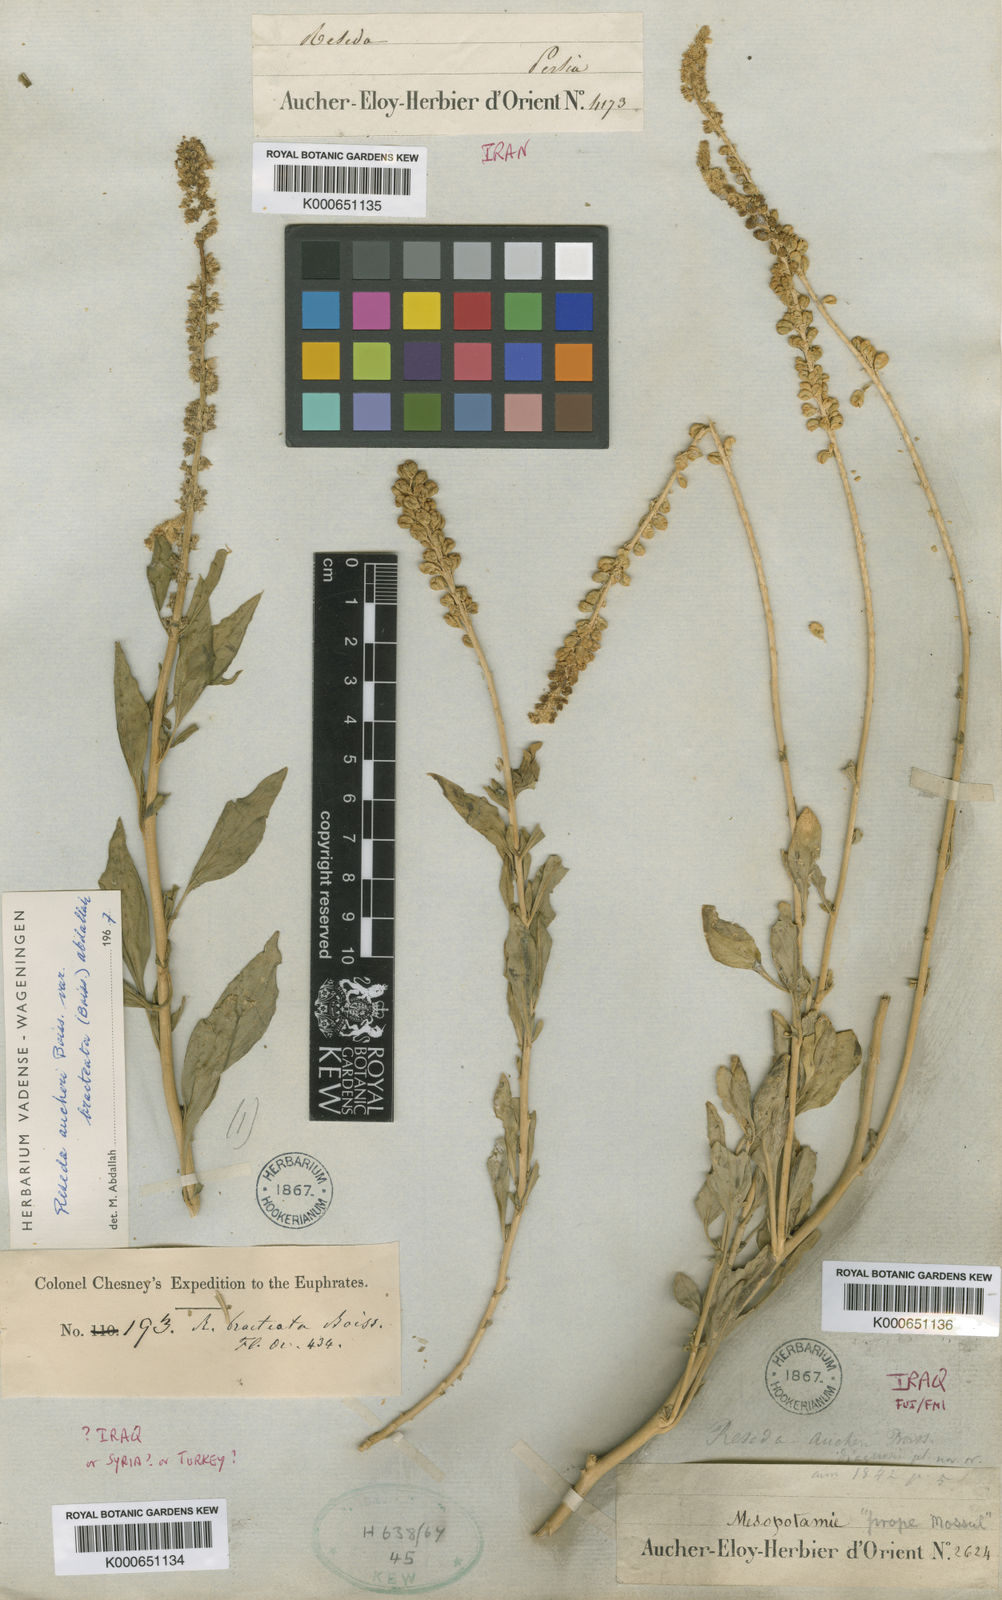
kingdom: Plantae
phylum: Tracheophyta
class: Magnoliopsida
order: Brassicales
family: Resedaceae
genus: Reseda
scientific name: Reseda aucheri
